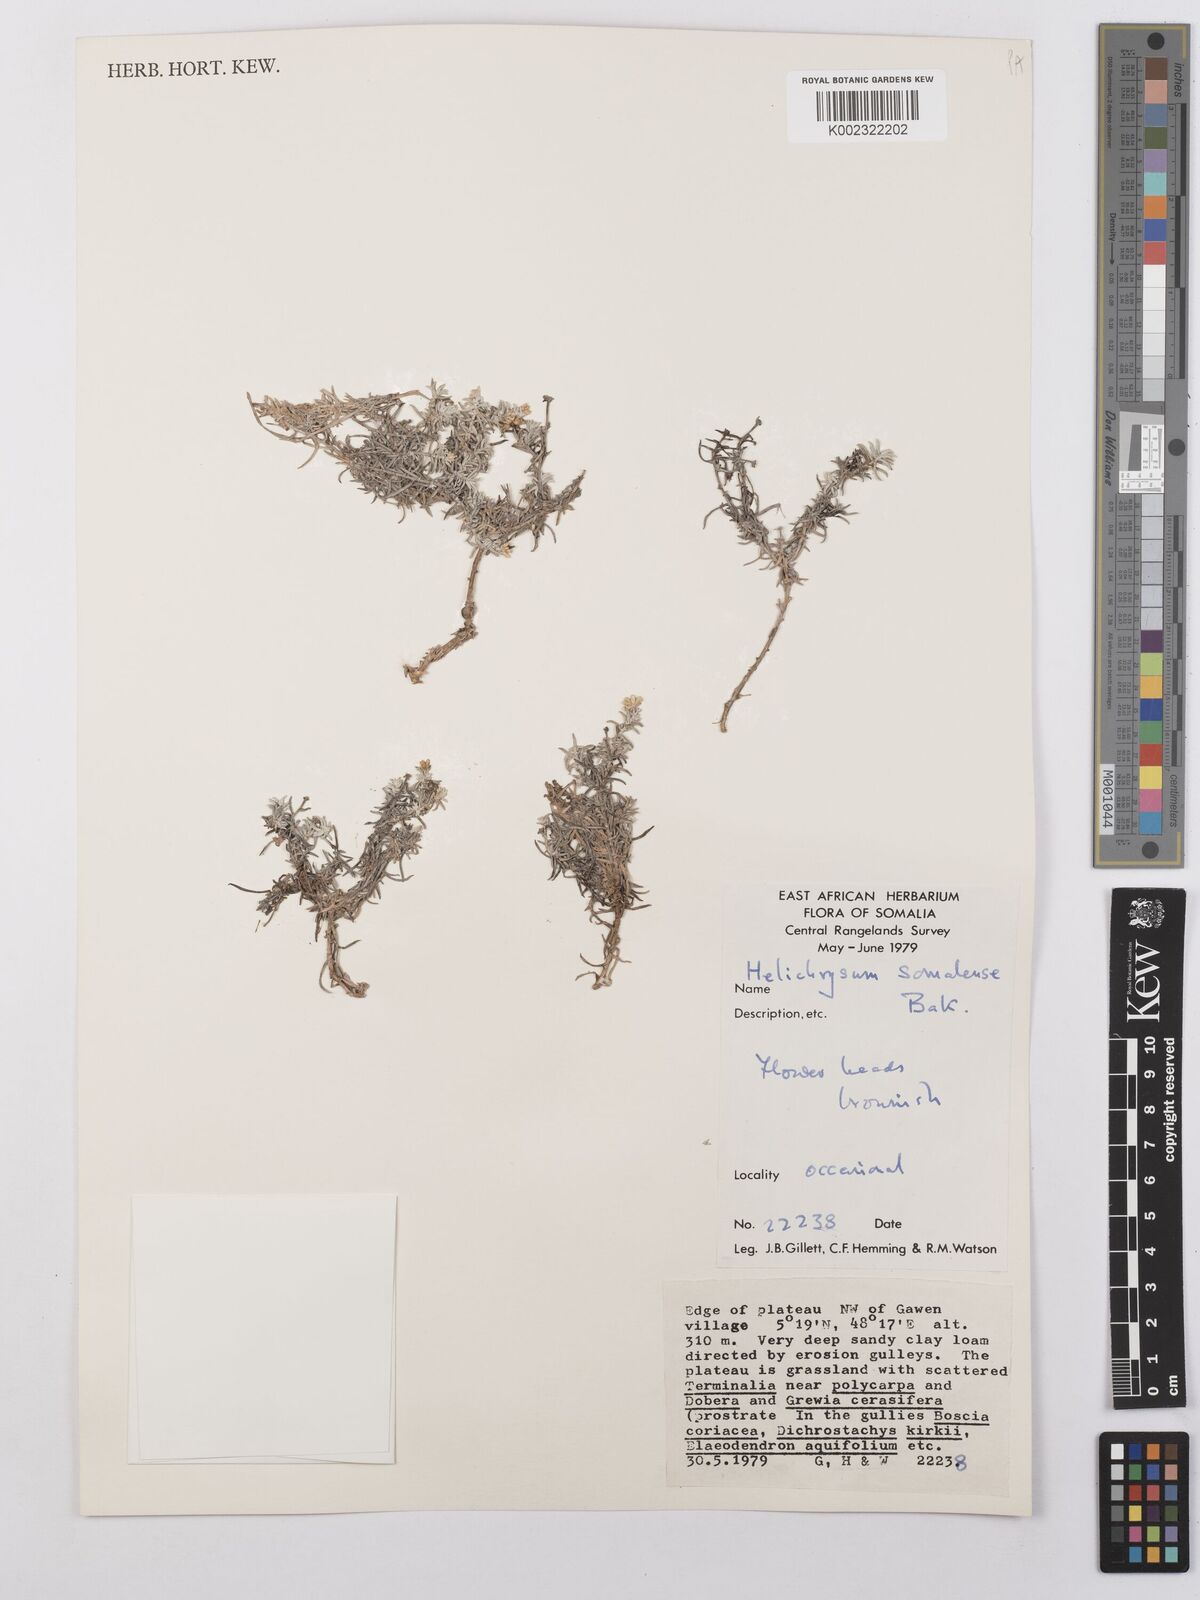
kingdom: Plantae
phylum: Tracheophyta
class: Magnoliopsida
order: Asterales
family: Asteraceae
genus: Helichrysum
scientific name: Helichrysum somalense
